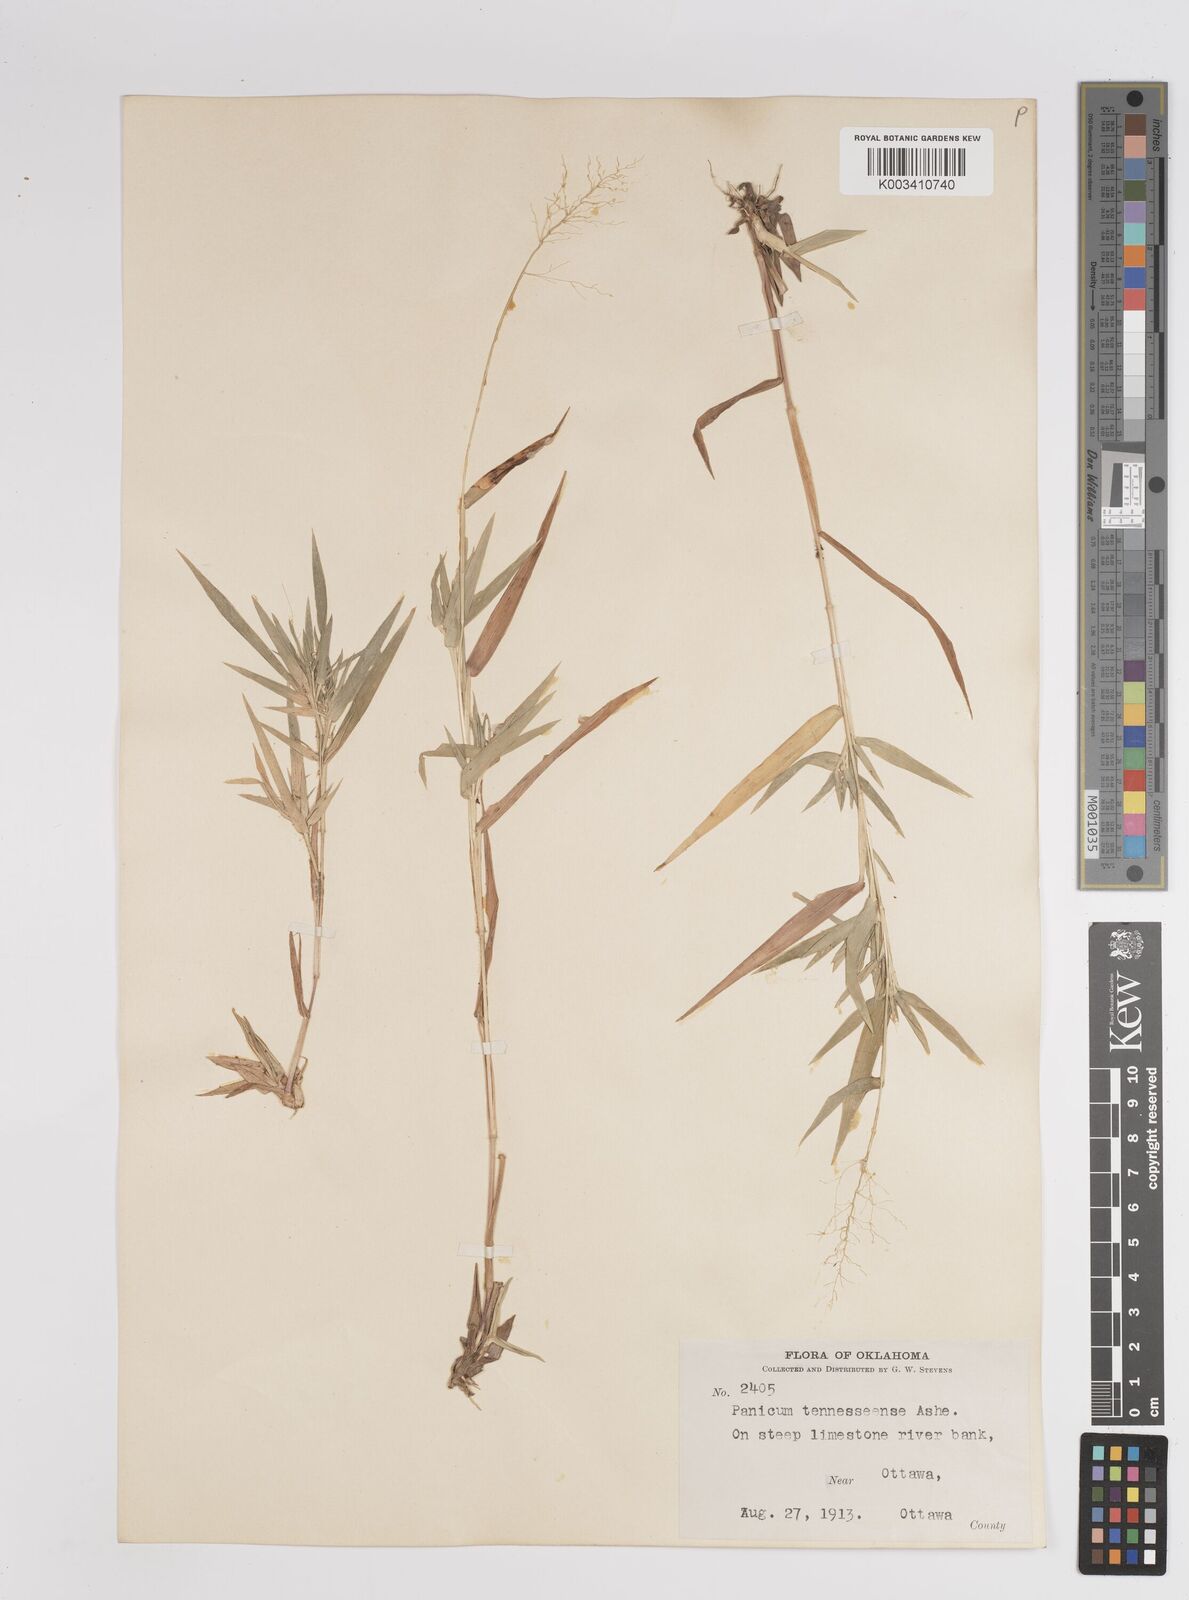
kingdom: Plantae
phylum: Tracheophyta
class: Liliopsida
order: Poales
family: Poaceae
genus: Dichanthelium
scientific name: Dichanthelium acuminatum
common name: Hairy panic grass
